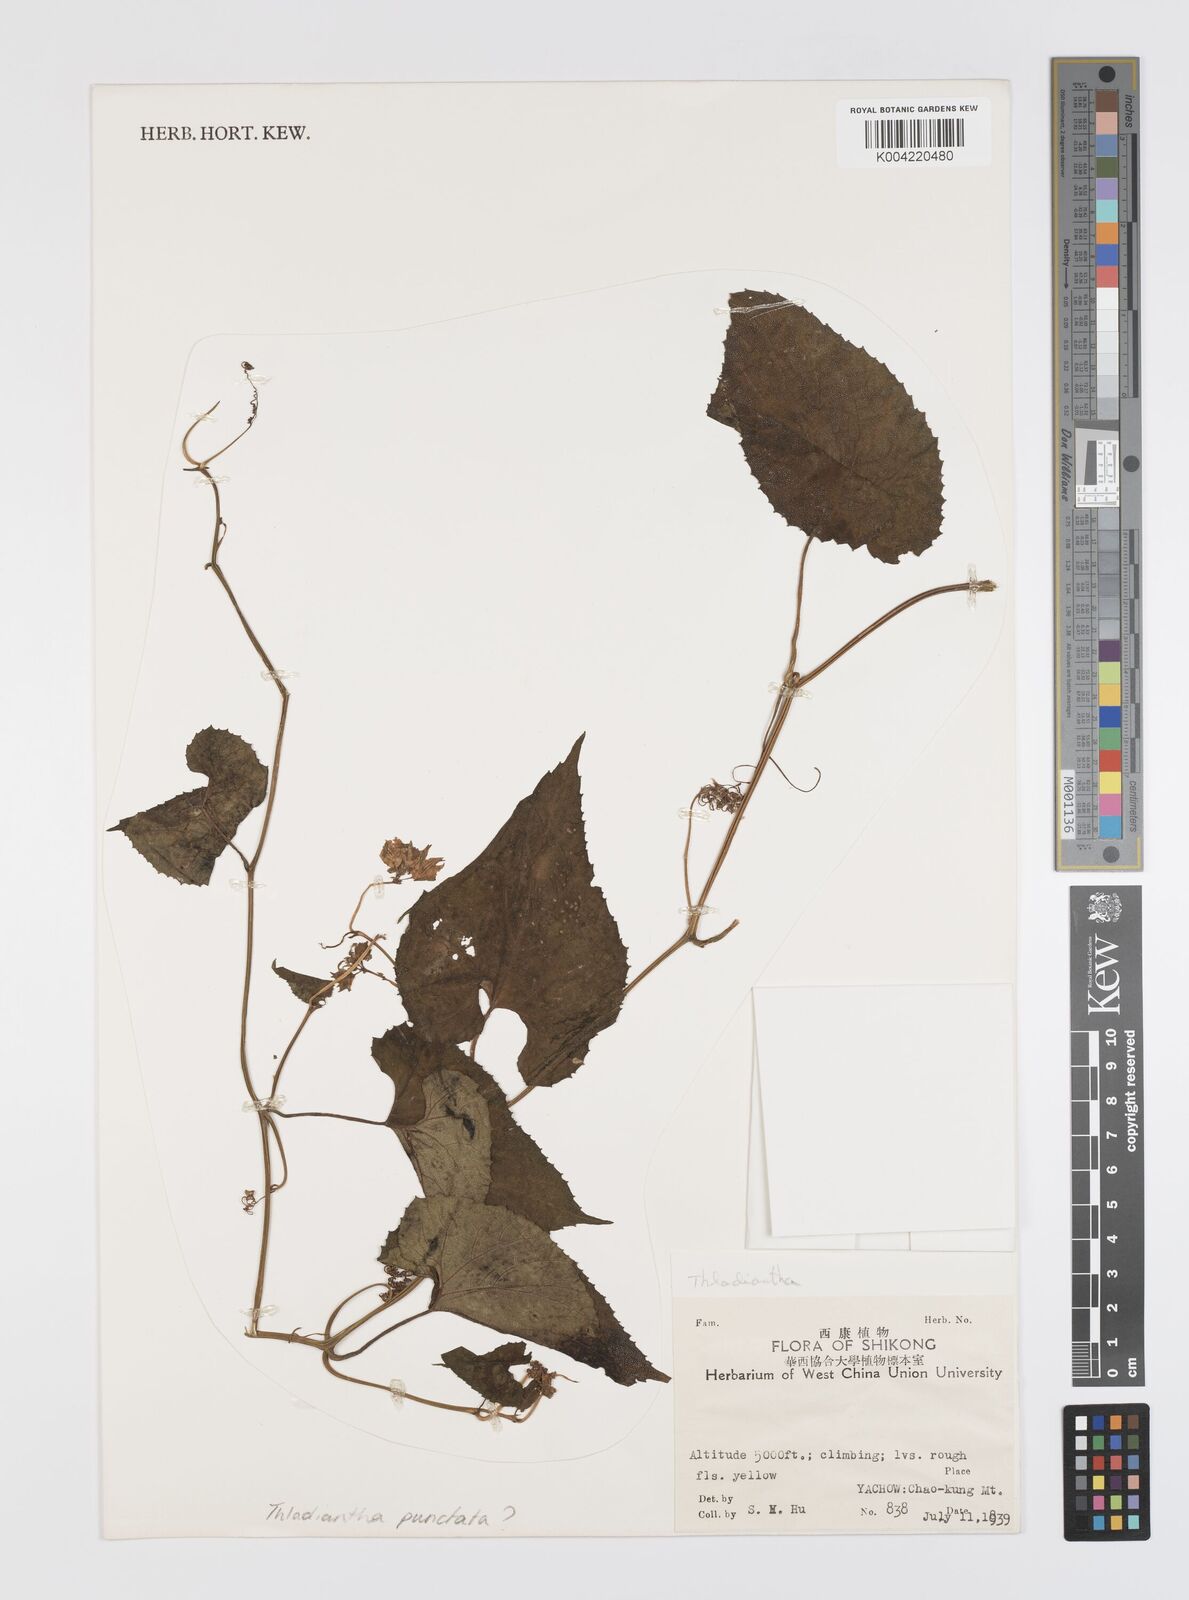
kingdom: Plantae
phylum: Tracheophyta
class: Magnoliopsida
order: Cucurbitales
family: Cucurbitaceae
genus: Thladiantha
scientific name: Thladiantha punctata
